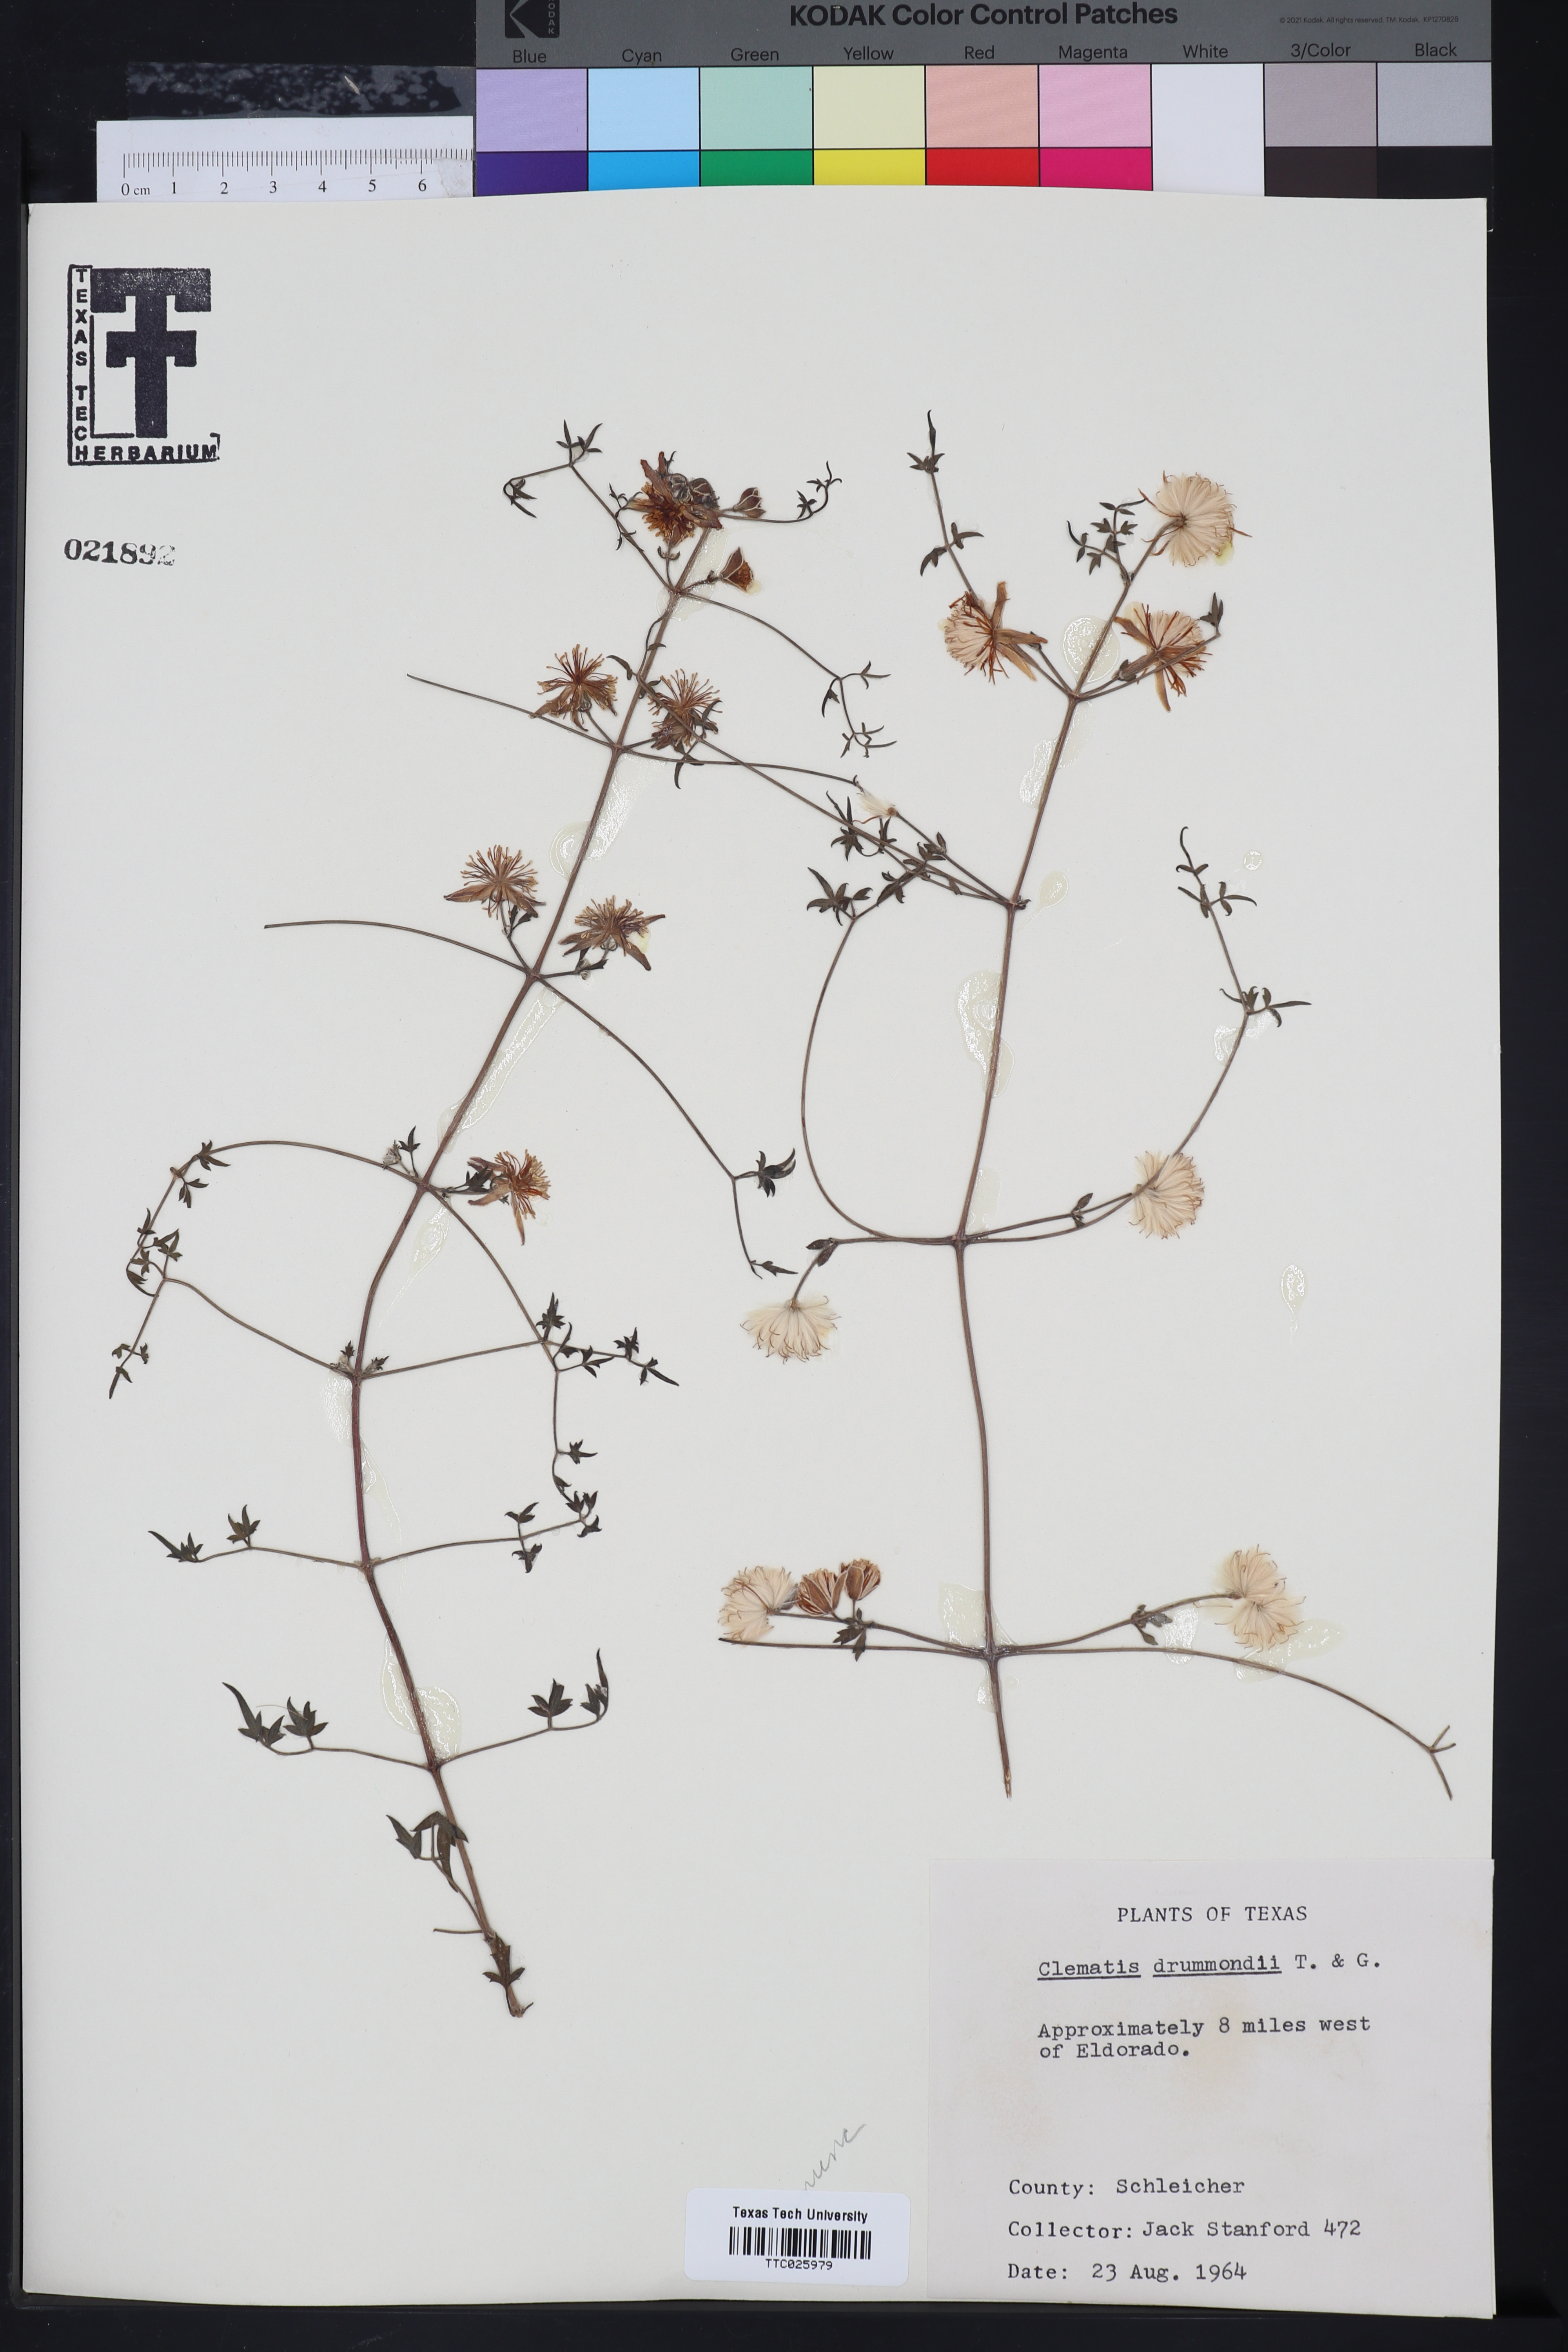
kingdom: Plantae
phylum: Tracheophyta
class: Magnoliopsida
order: Ranunculales
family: Ranunculaceae
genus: Clematis
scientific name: Clematis drummondii
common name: Texas virgin's bower
